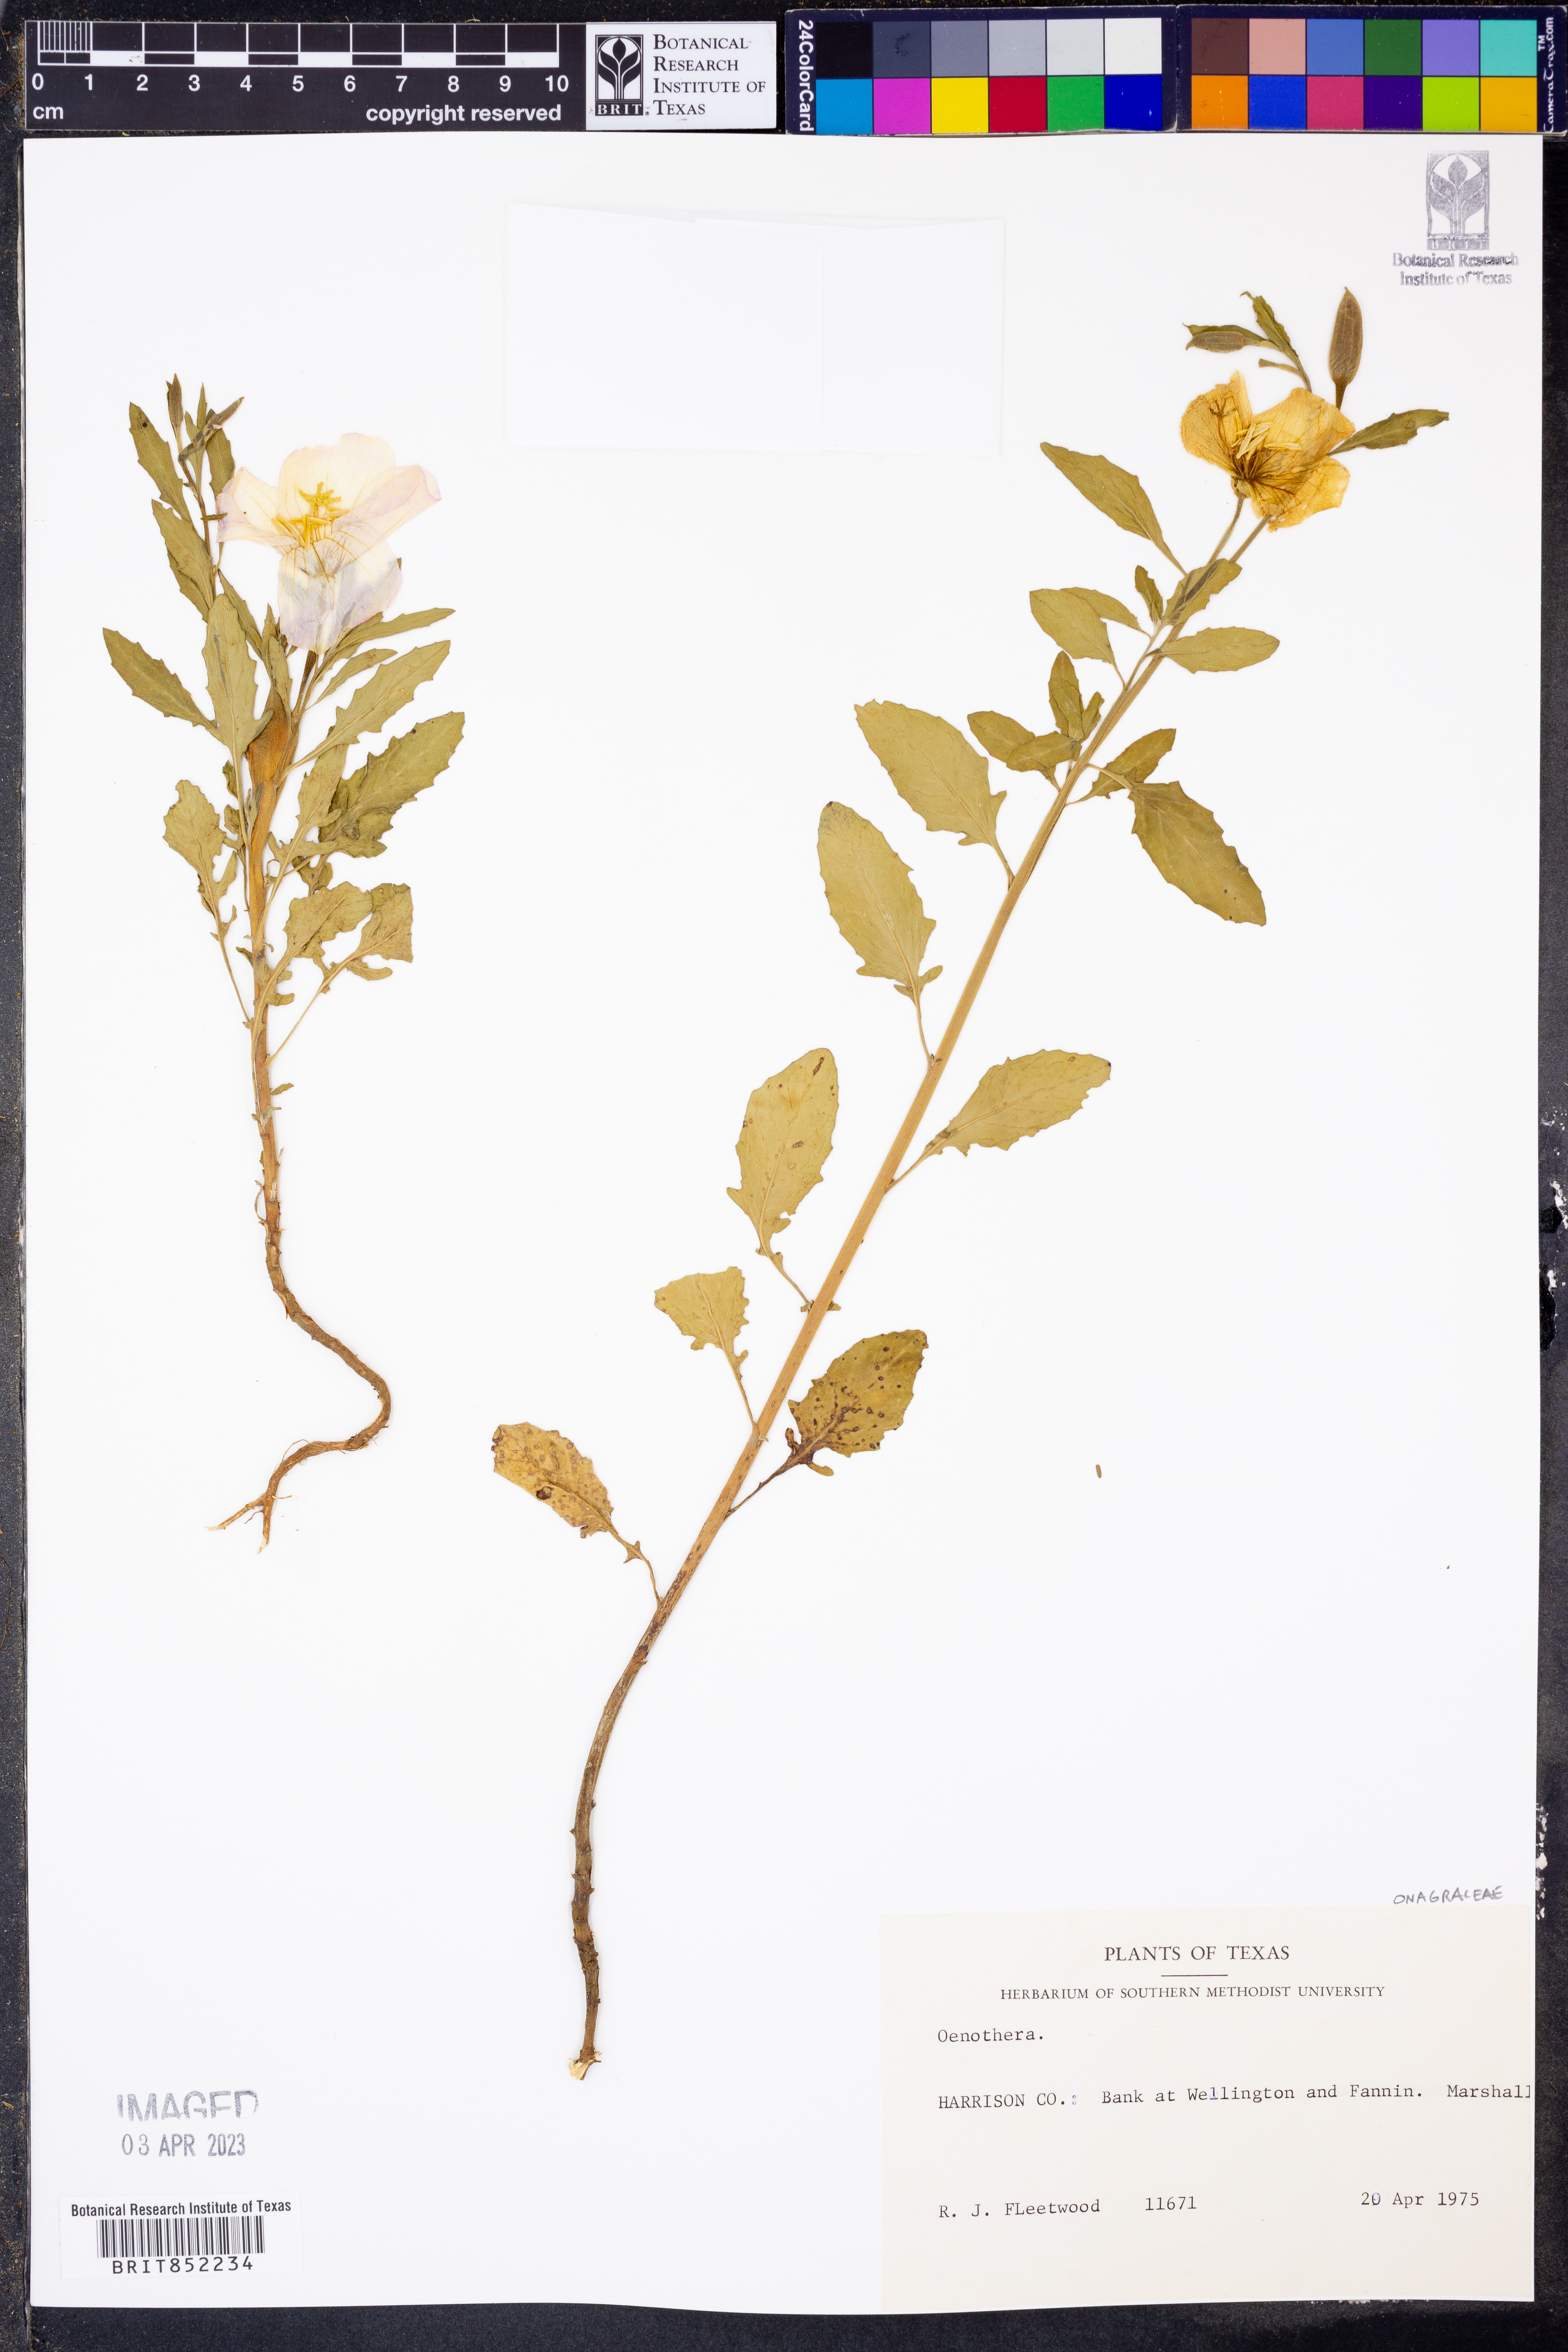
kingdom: Plantae
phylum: Tracheophyta
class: Magnoliopsida
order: Myrtales
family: Onagraceae
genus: Oenothera
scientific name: Oenothera
